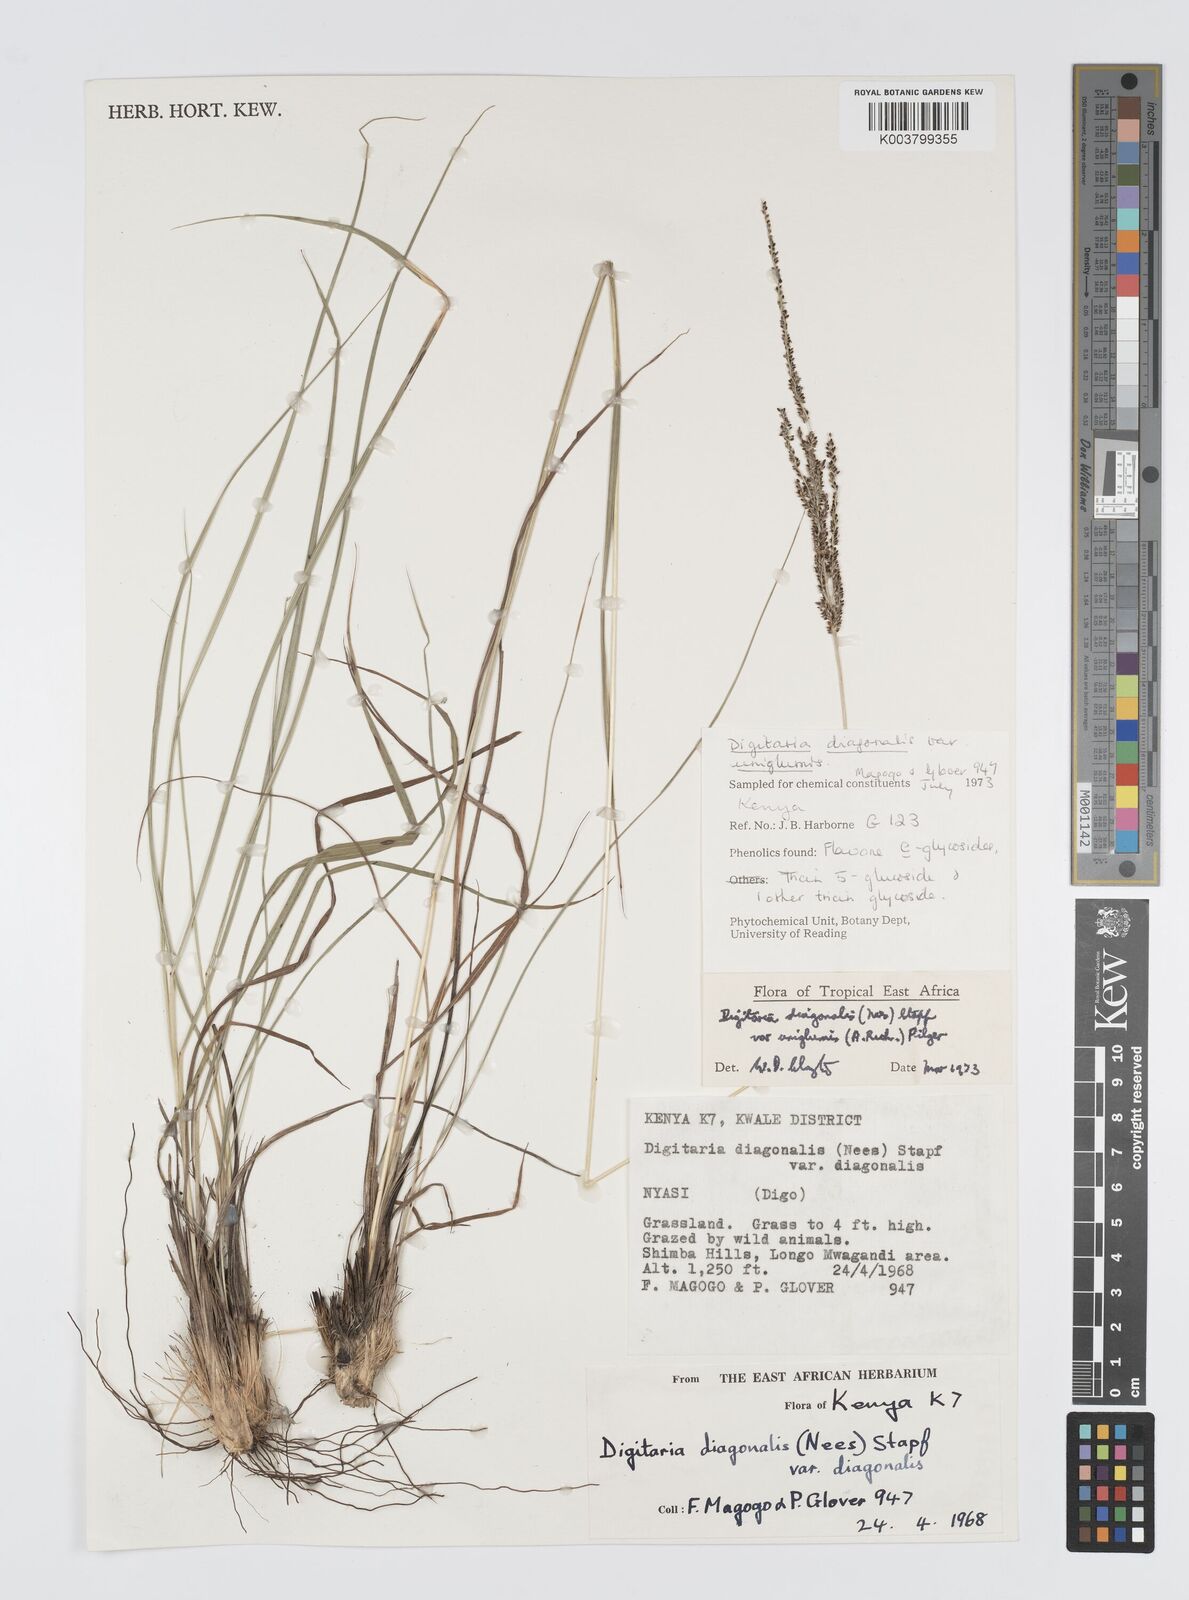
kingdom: Plantae
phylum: Tracheophyta
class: Liliopsida
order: Poales
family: Poaceae
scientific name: Poaceae
